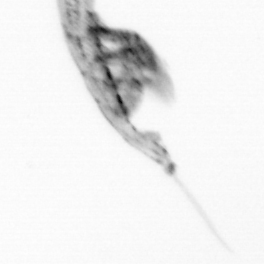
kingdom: Animalia
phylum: Arthropoda
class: Copepoda
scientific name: Copepoda
